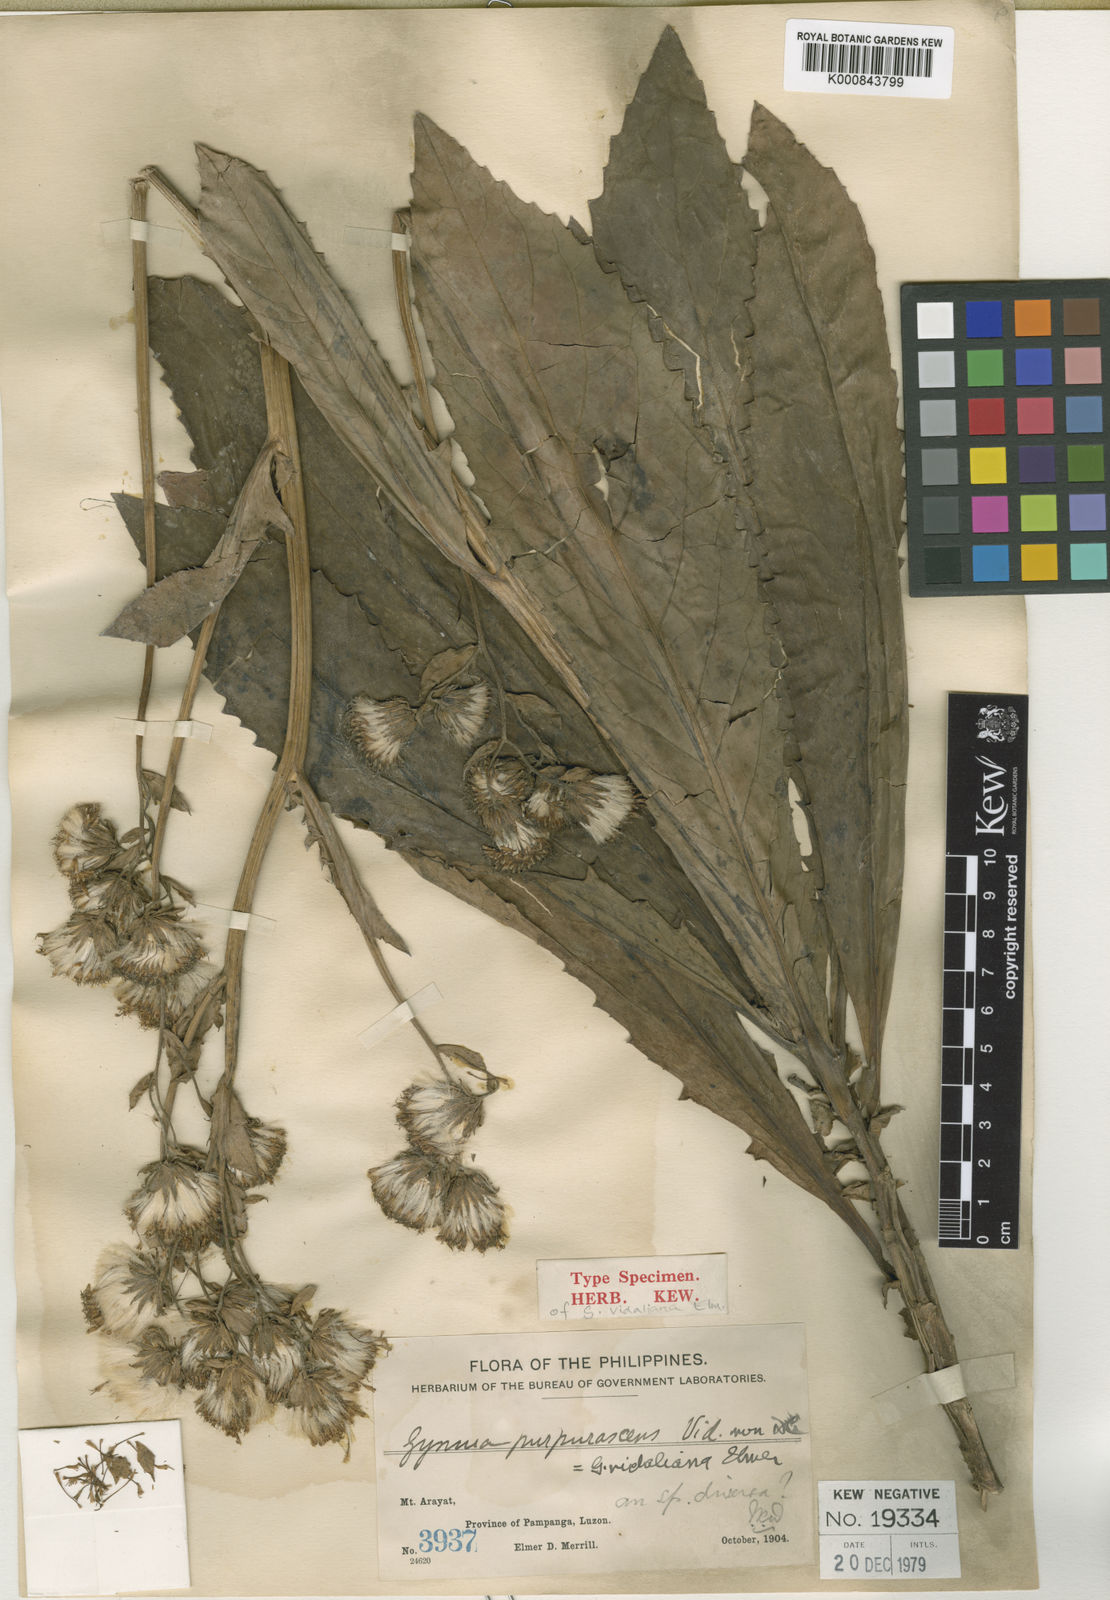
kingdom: Plantae
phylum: Tracheophyta
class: Magnoliopsida
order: Asterales
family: Asteraceae
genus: Gynura
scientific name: Gynura vidaliana
